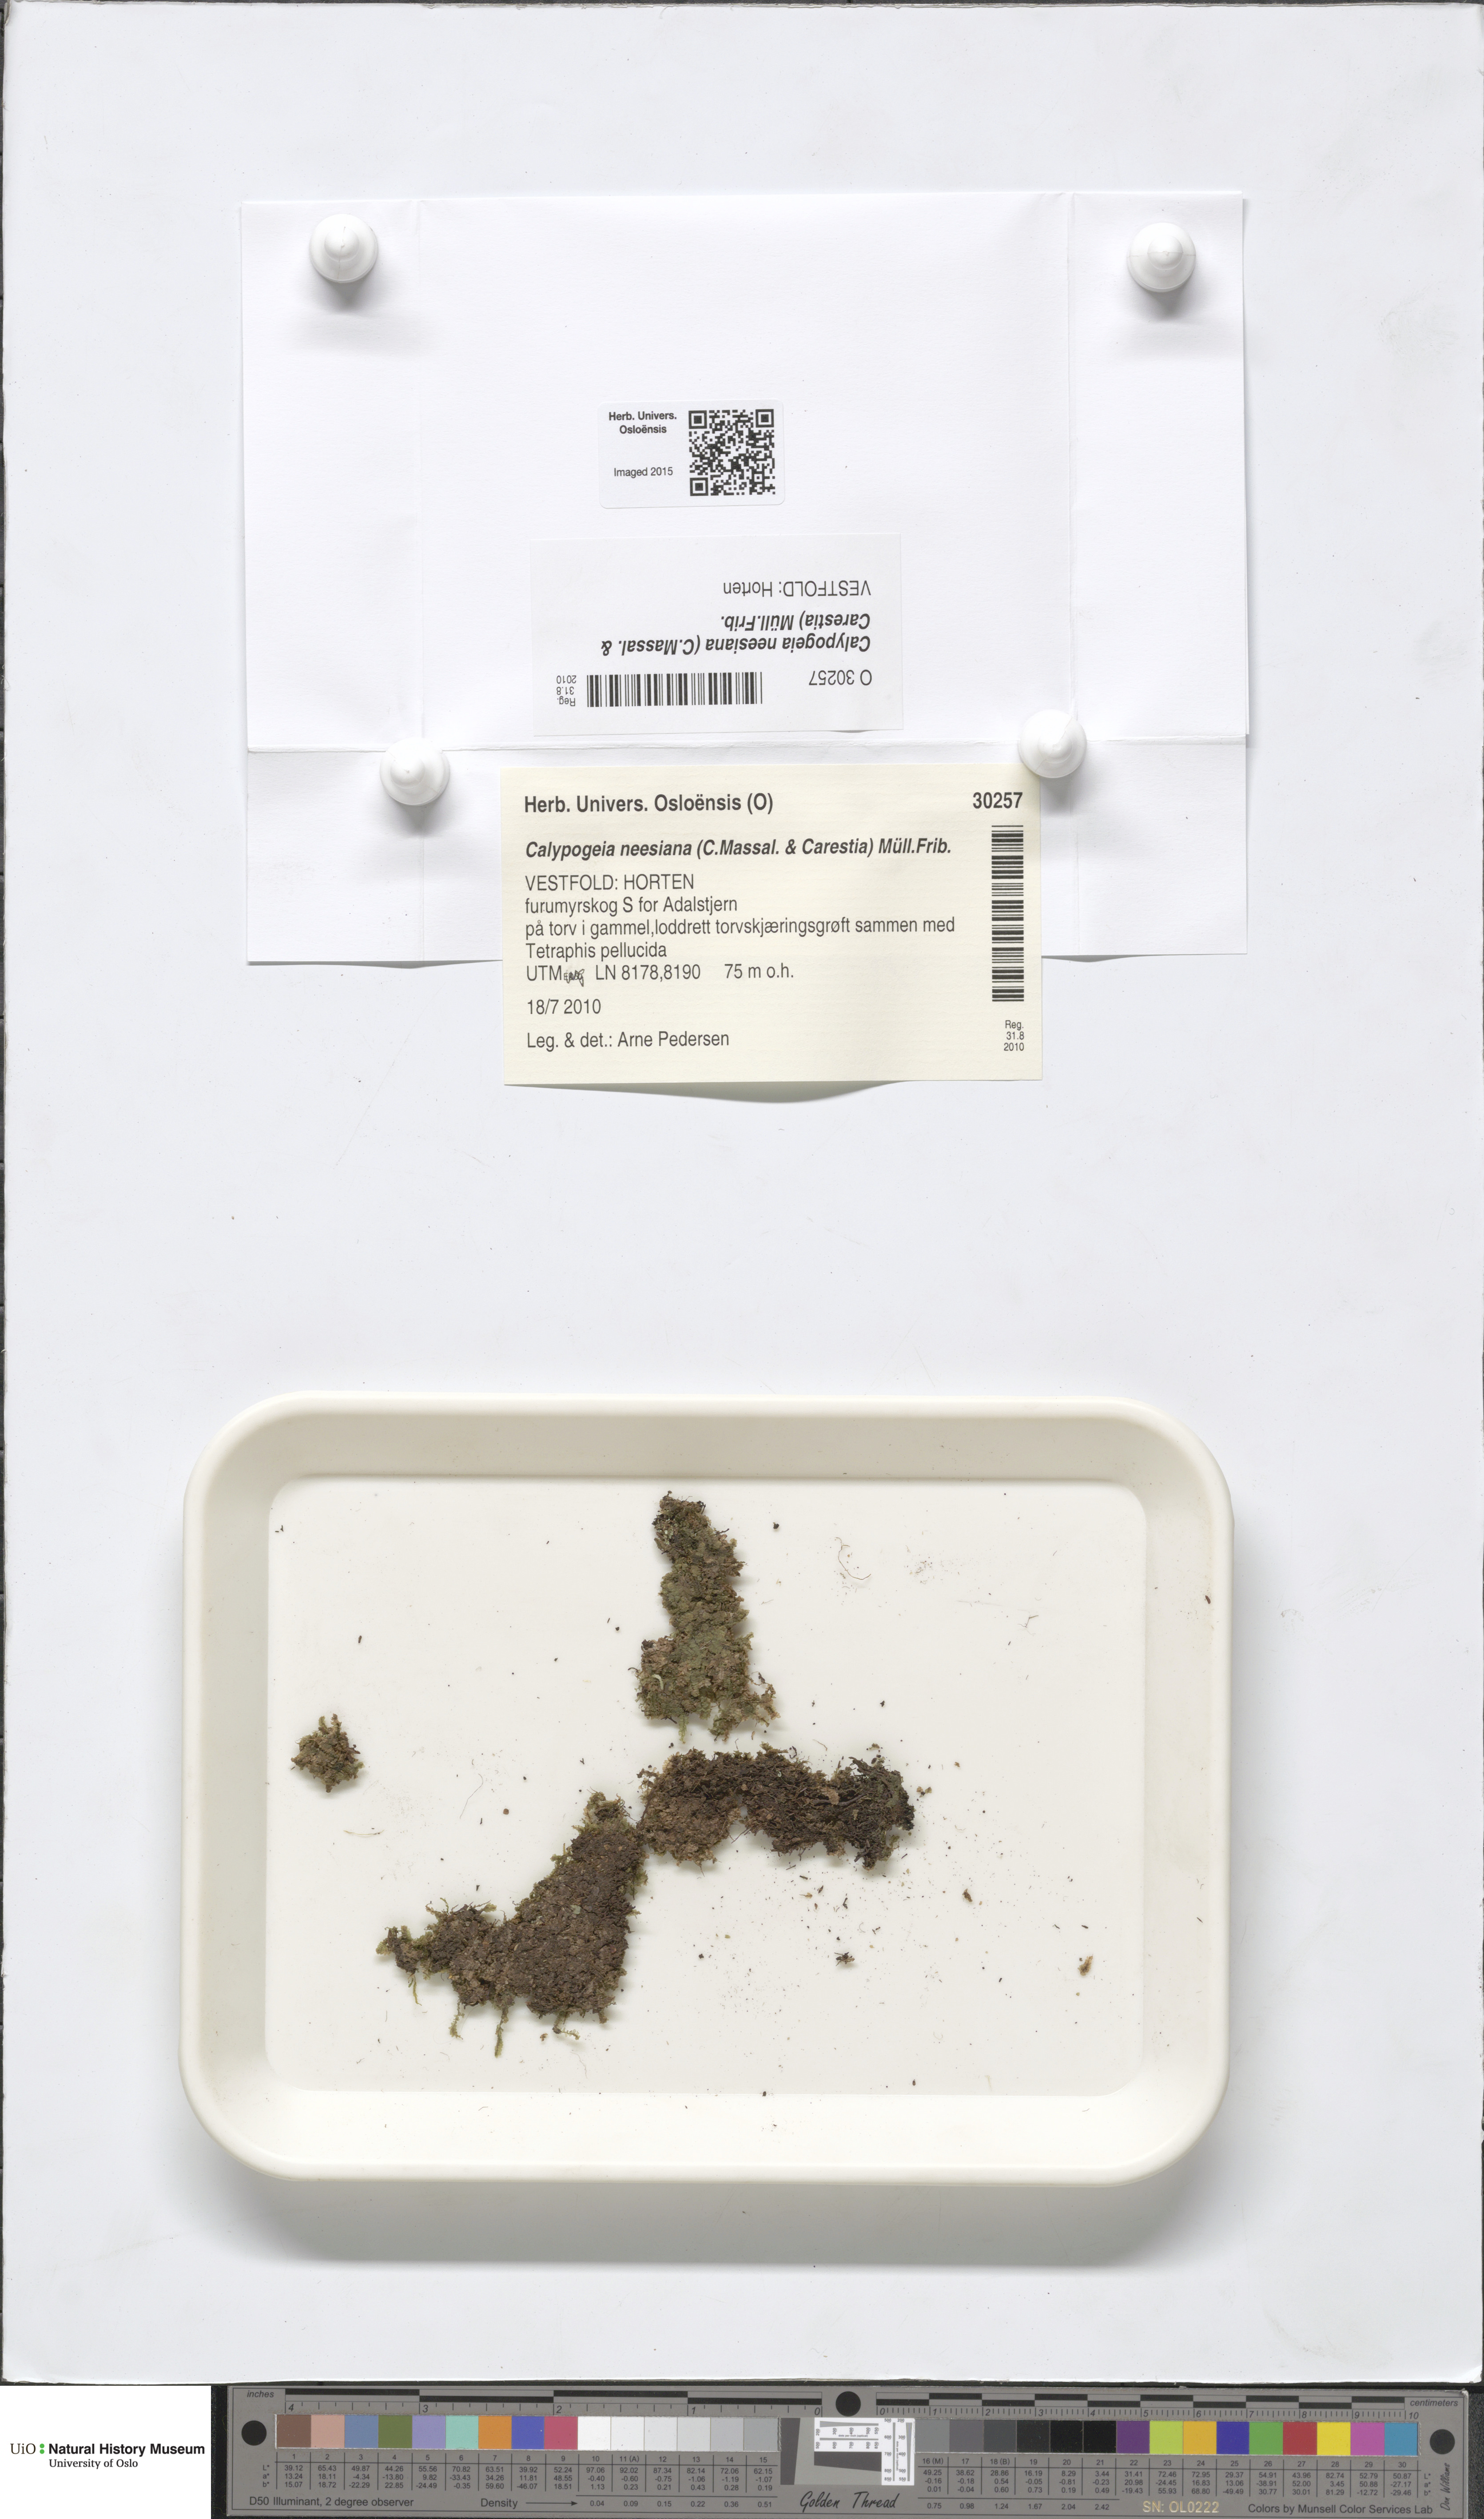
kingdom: Plantae
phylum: Marchantiophyta
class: Jungermanniopsida
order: Jungermanniales
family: Calypogeiaceae
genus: Calypogeia
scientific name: Calypogeia neesiana
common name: Nees  pouchwort
